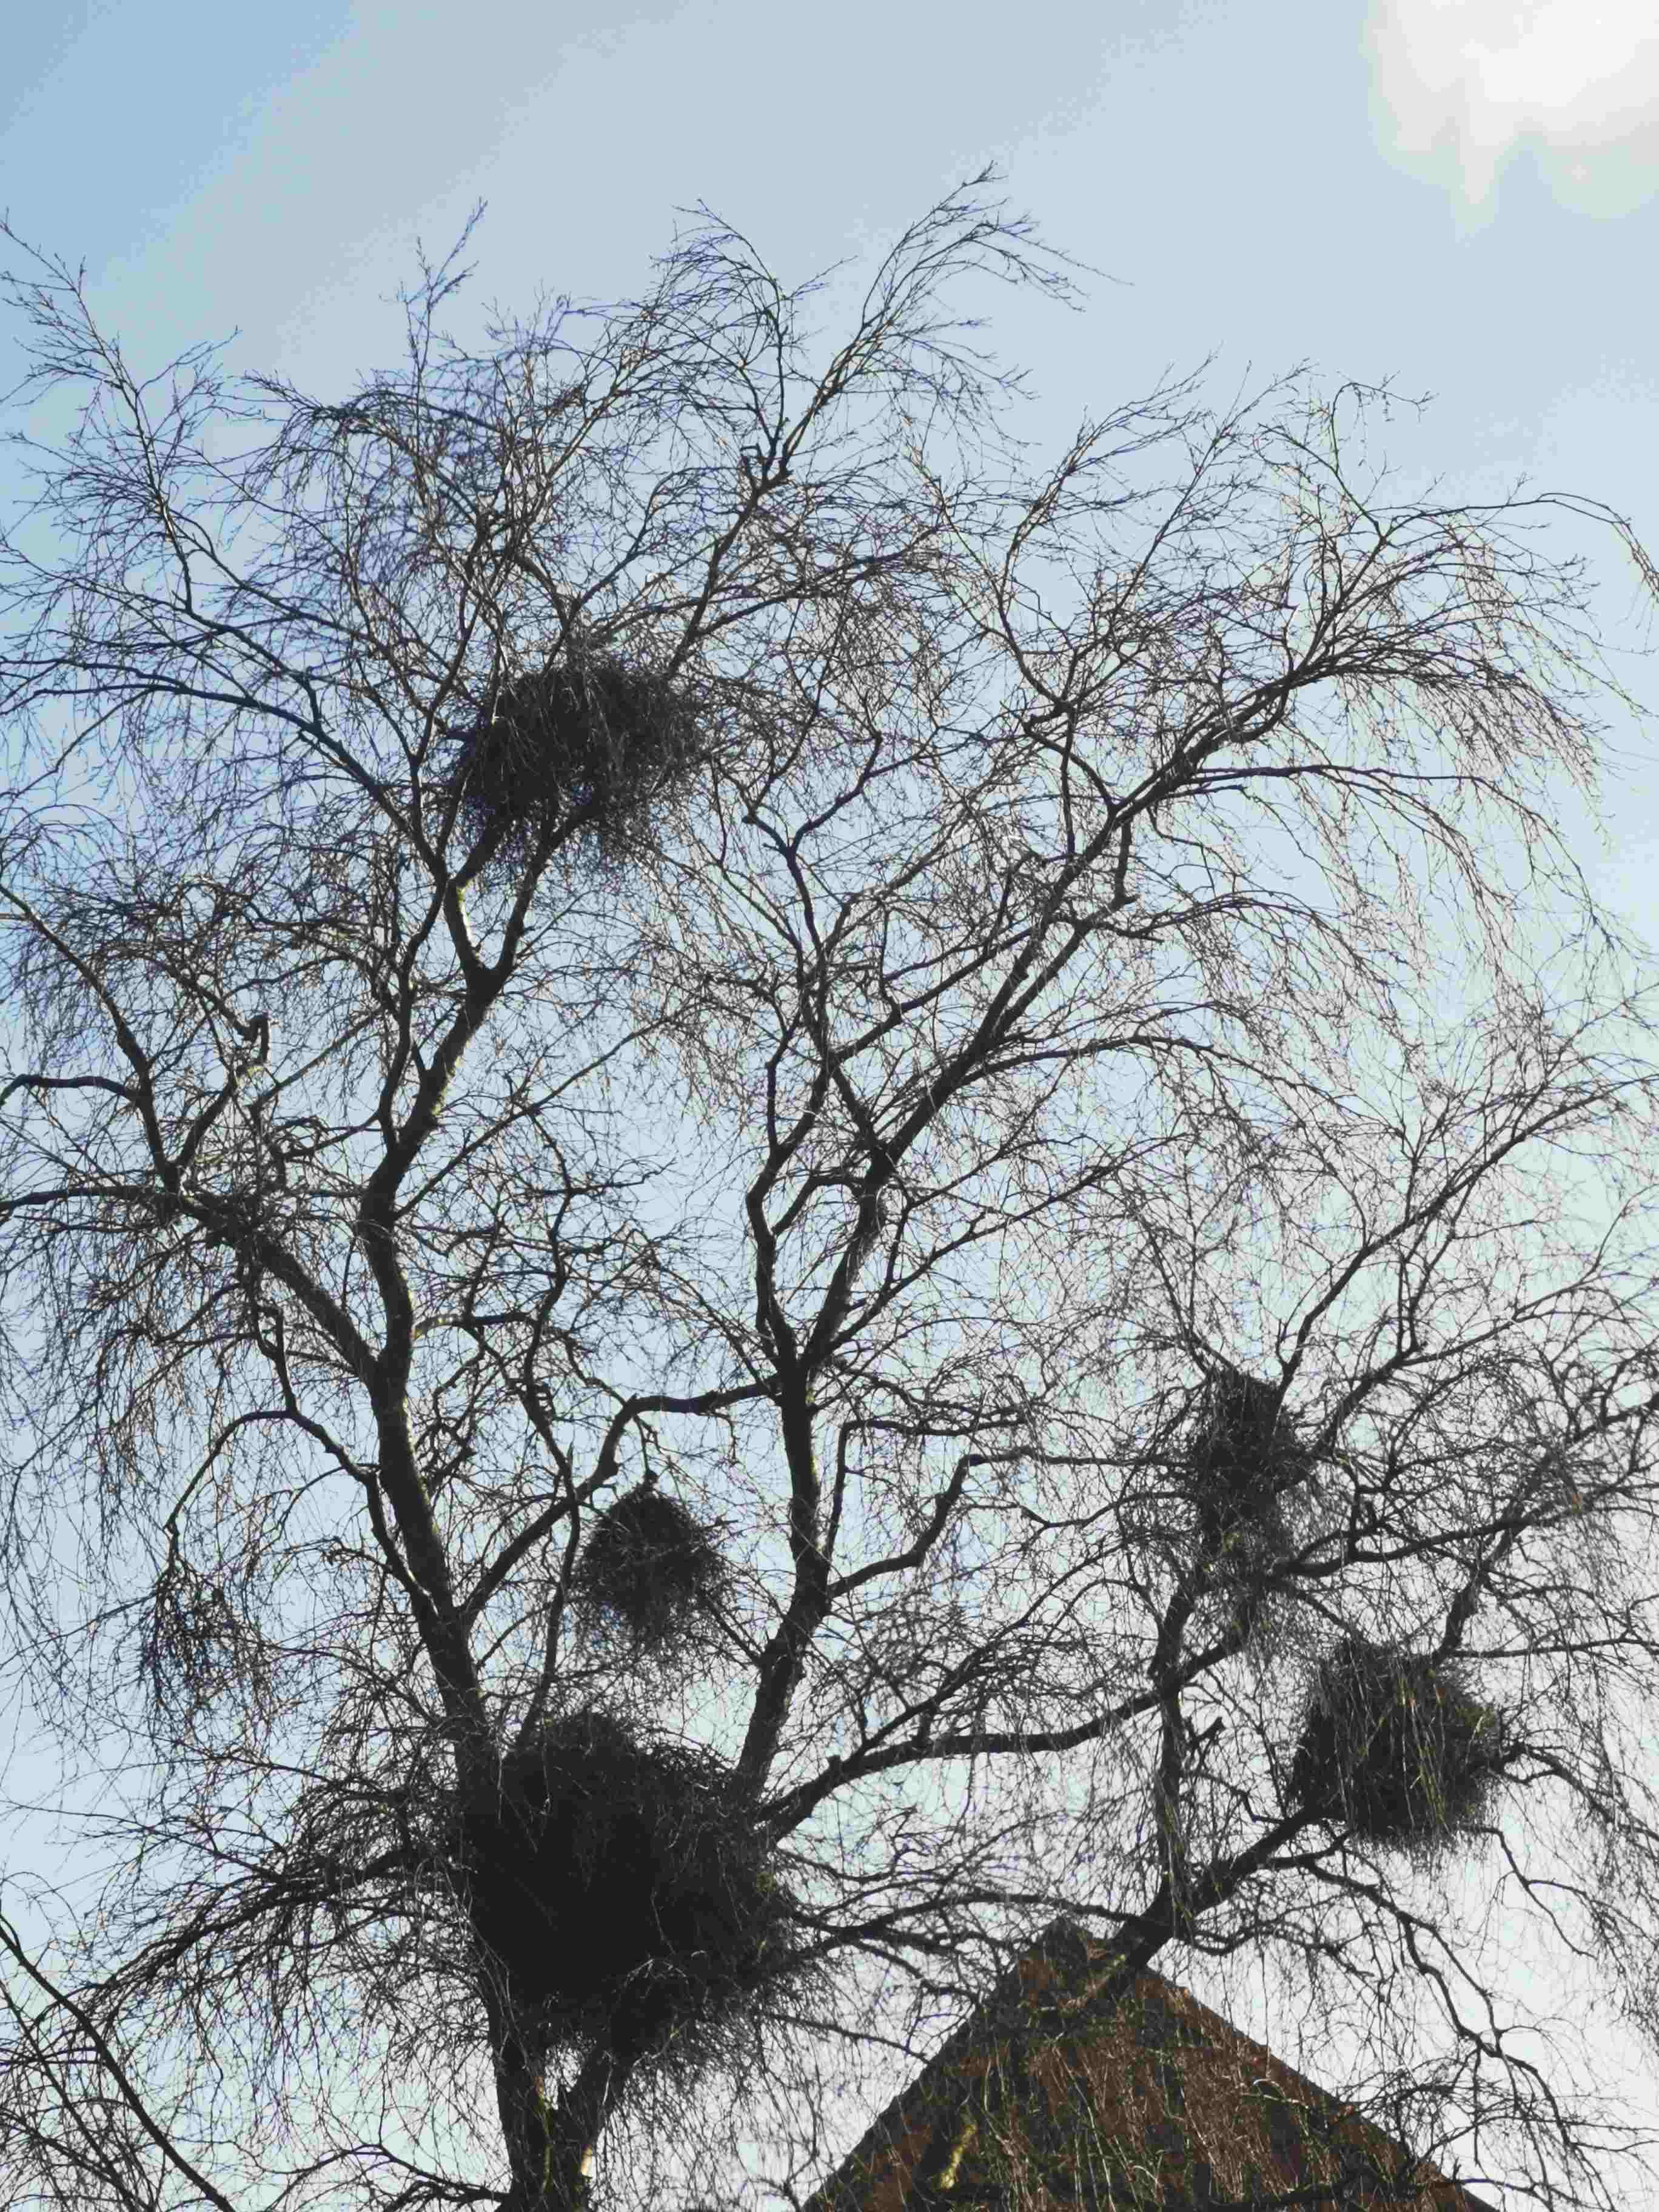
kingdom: Fungi
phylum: Ascomycota
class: Taphrinomycetes
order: Taphrinales
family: Taphrinaceae
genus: Taphrina
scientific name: Taphrina betulina
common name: hekse-sækdug
